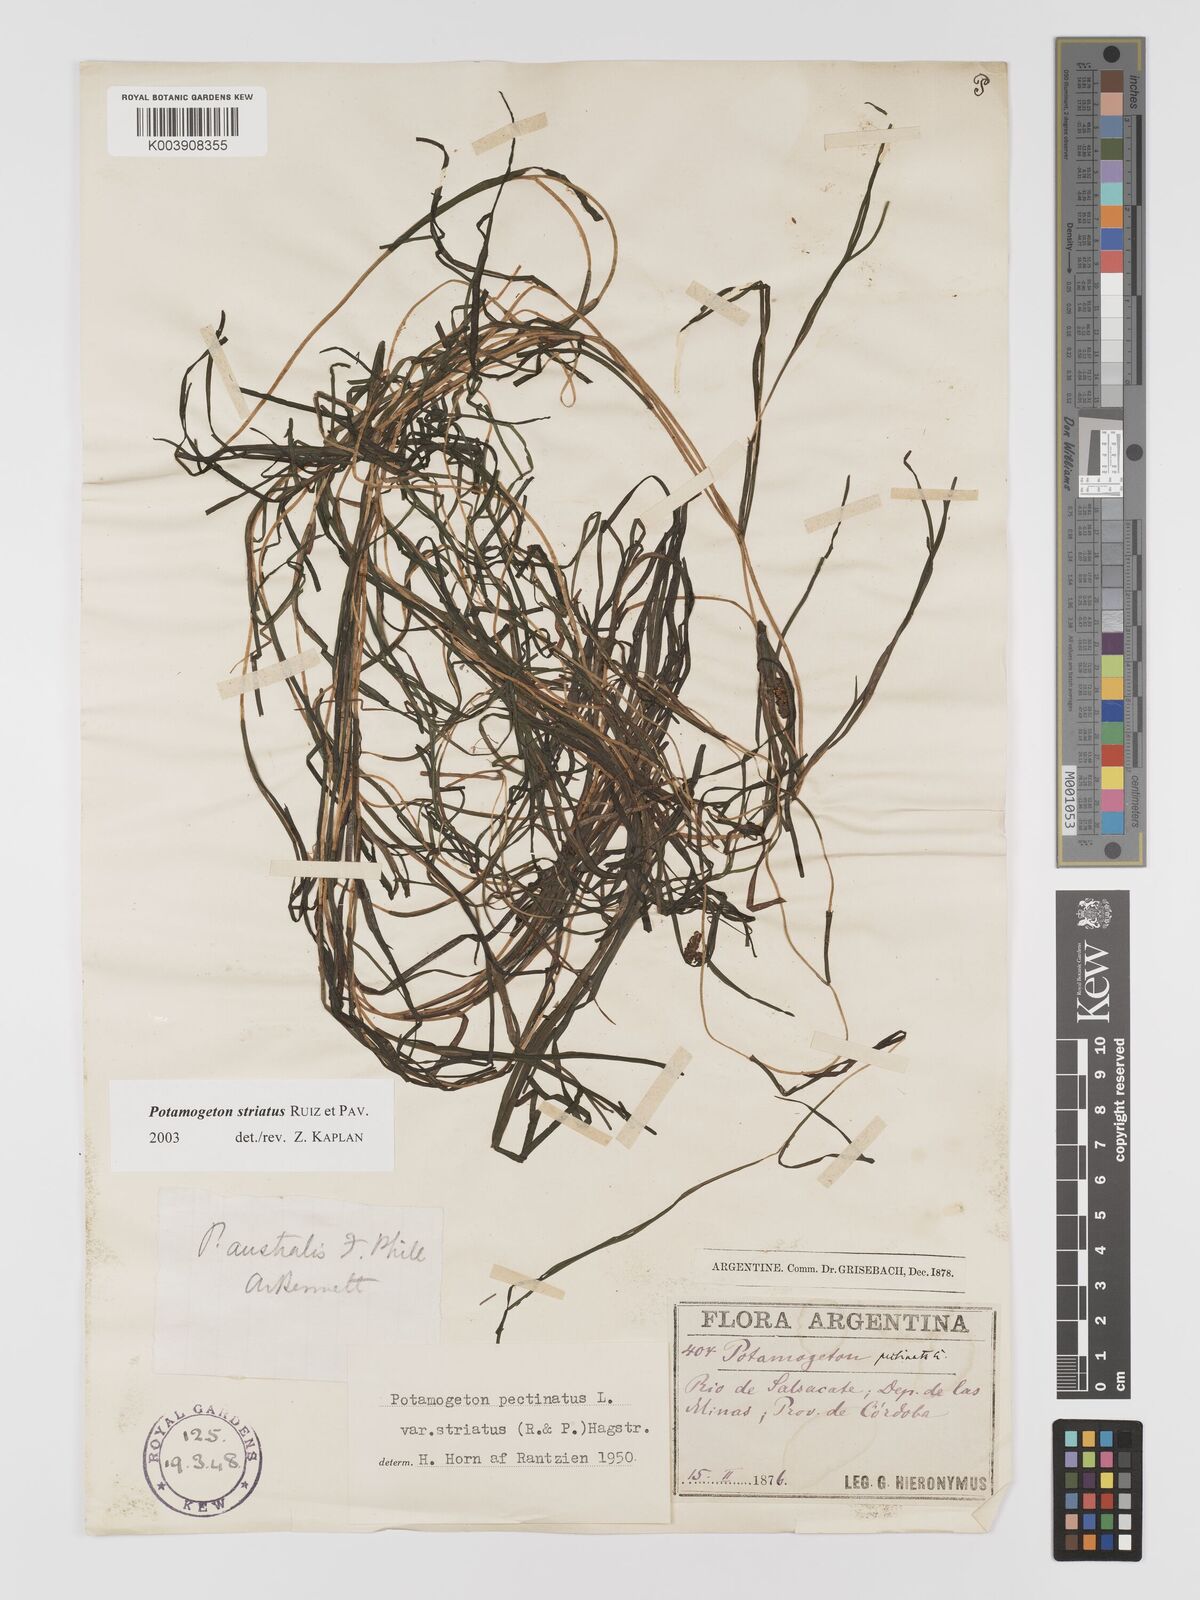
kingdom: Plantae
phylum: Tracheophyta
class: Liliopsida
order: Alismatales
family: Potamogetonaceae
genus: Stuckenia
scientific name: Stuckenia striata
